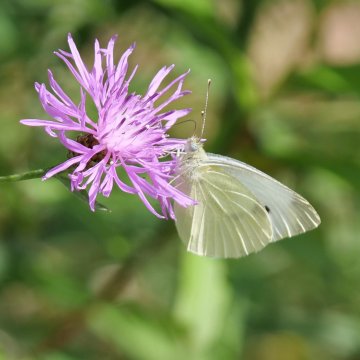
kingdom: Animalia
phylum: Arthropoda
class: Insecta
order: Lepidoptera
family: Pieridae
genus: Pieris
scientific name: Pieris rapae
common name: Cabbage White
